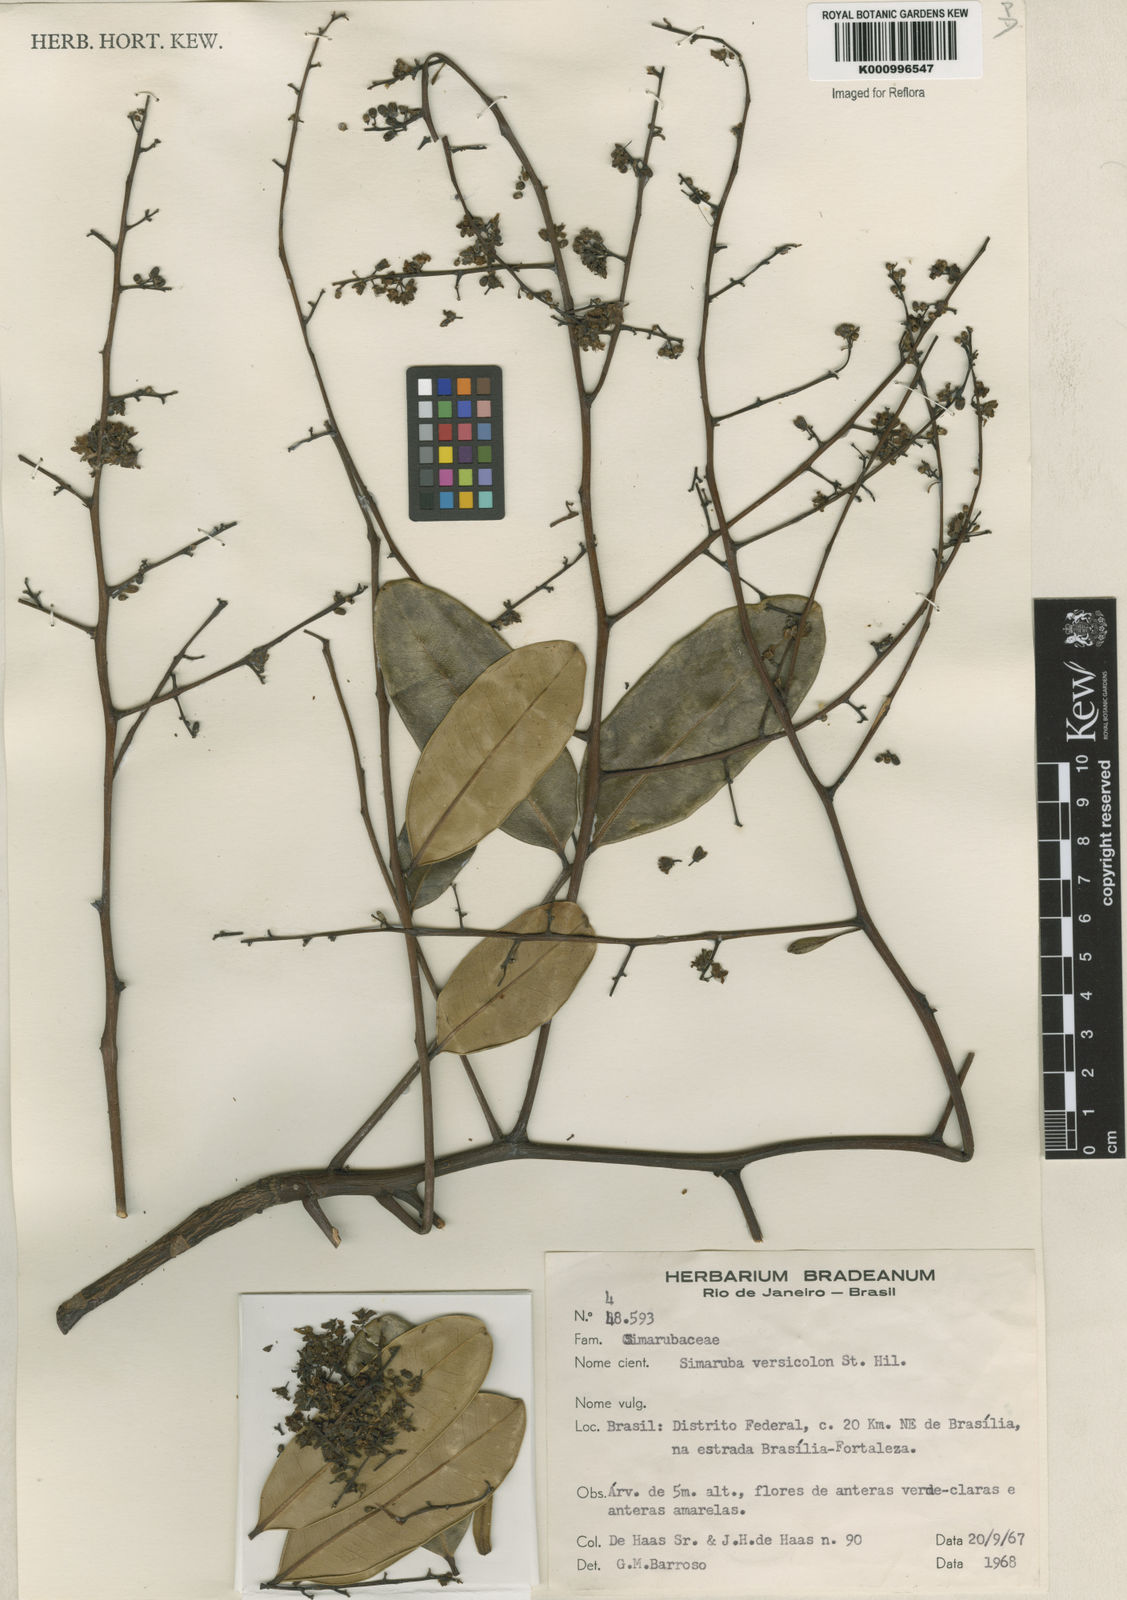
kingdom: Plantae
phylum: Tracheophyta
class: Magnoliopsida
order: Sapindales
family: Simaroubaceae
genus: Simarouba
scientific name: Simarouba versicolor
